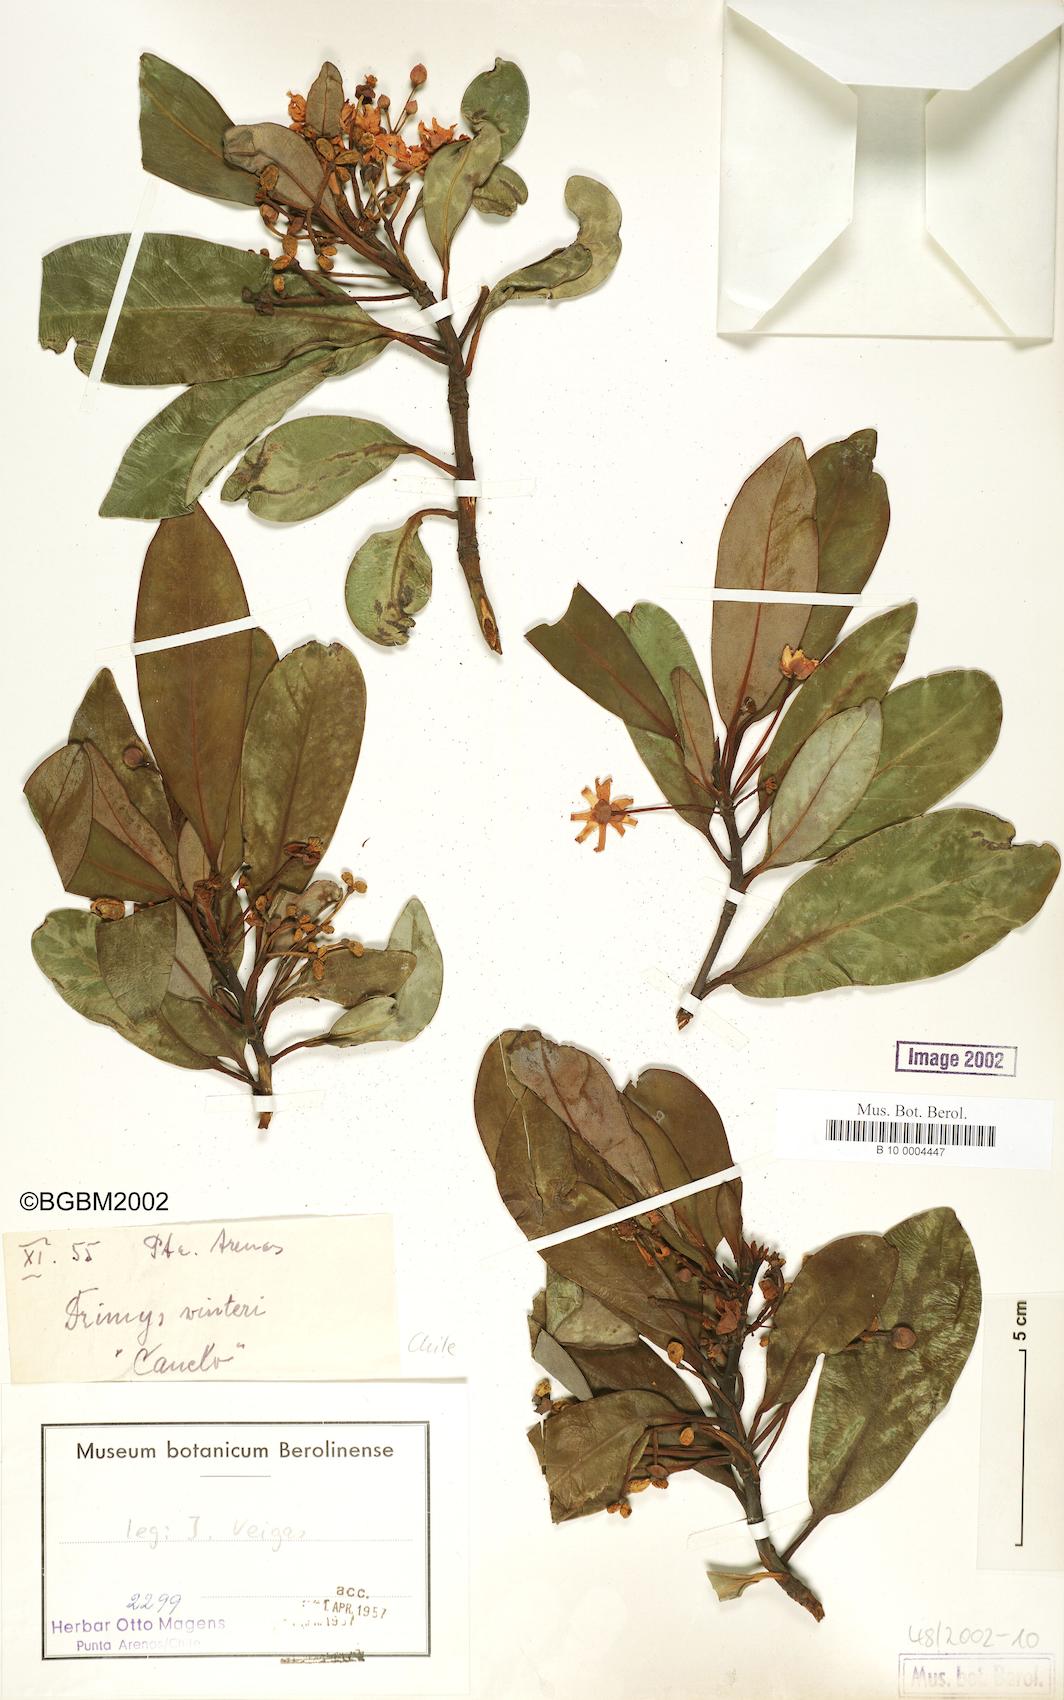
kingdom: Plantae
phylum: Tracheophyta
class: Magnoliopsida
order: Canellales
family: Winteraceae
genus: Drimys
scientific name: Drimys winteri
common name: Winter's-bark
